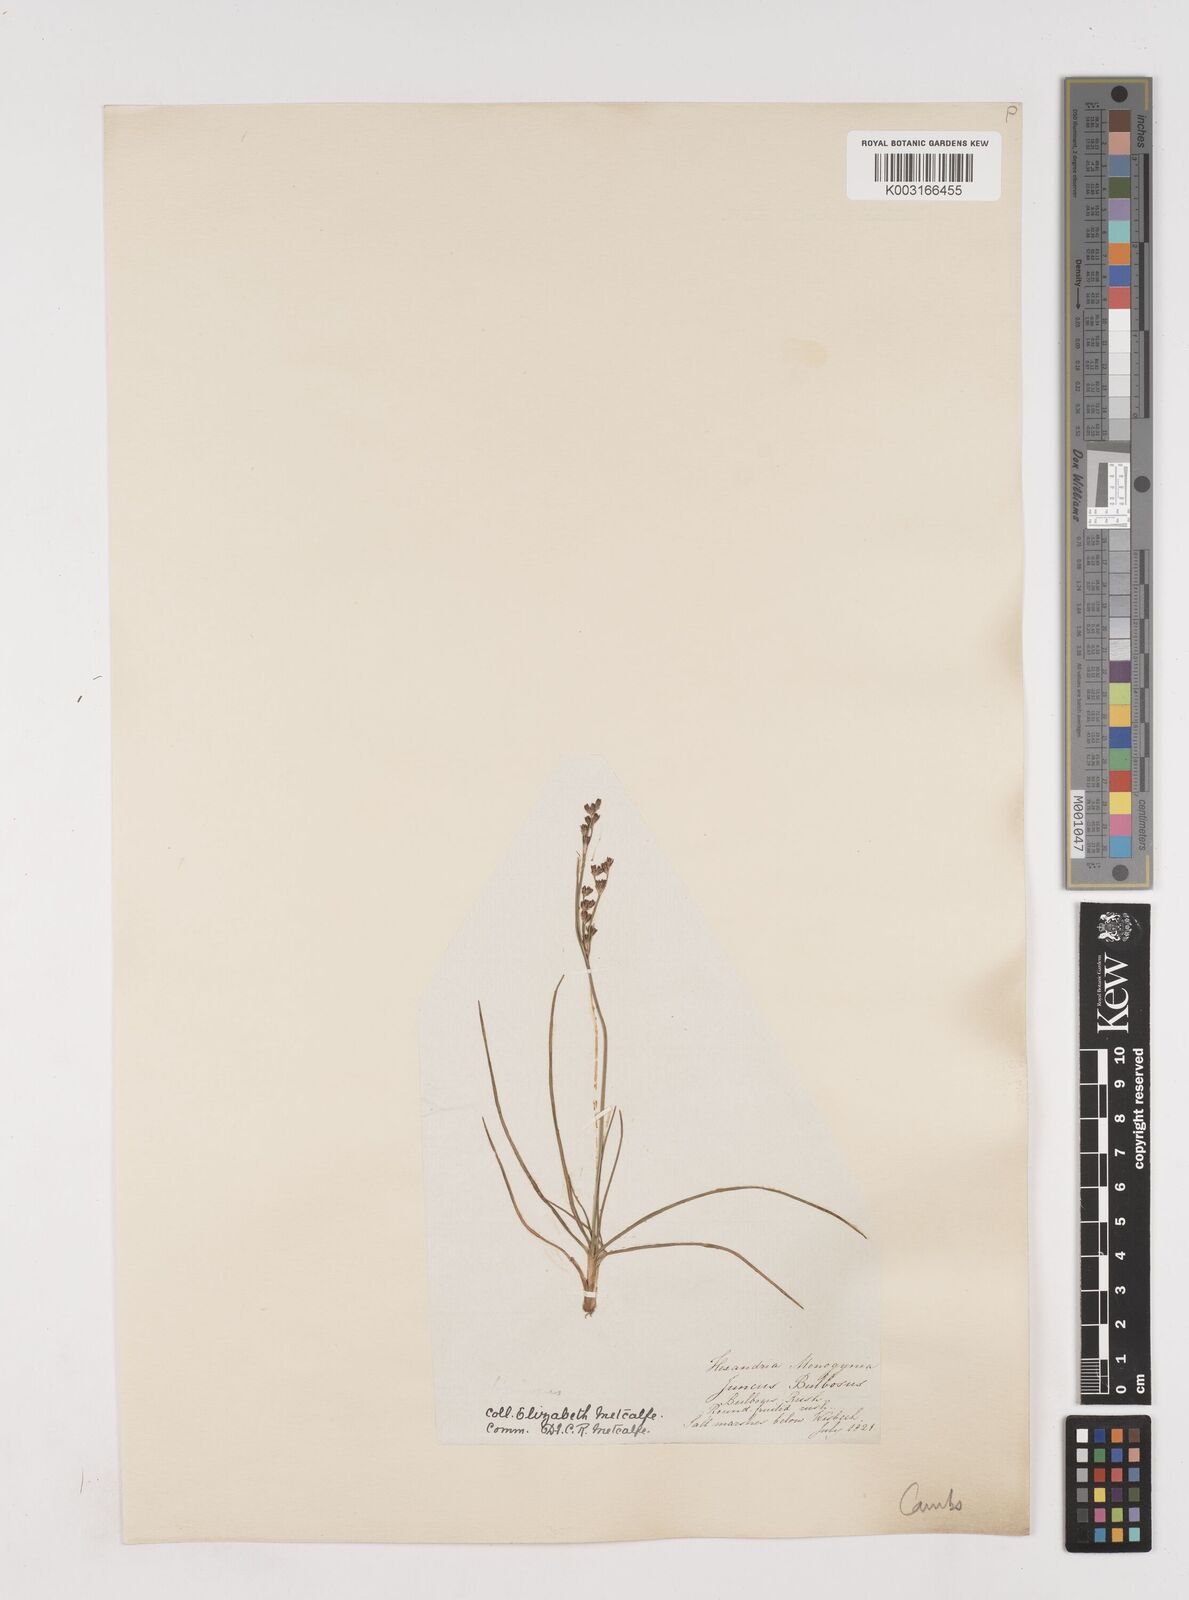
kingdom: Plantae
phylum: Tracheophyta
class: Liliopsida
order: Poales
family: Juncaceae
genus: Juncus
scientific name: Juncus squarrosus
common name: Heath rush
